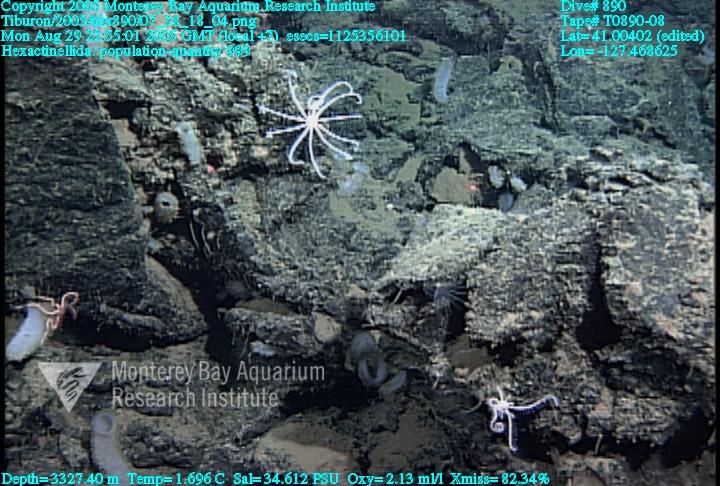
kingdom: Animalia
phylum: Porifera
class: Hexactinellida
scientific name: Hexactinellida
